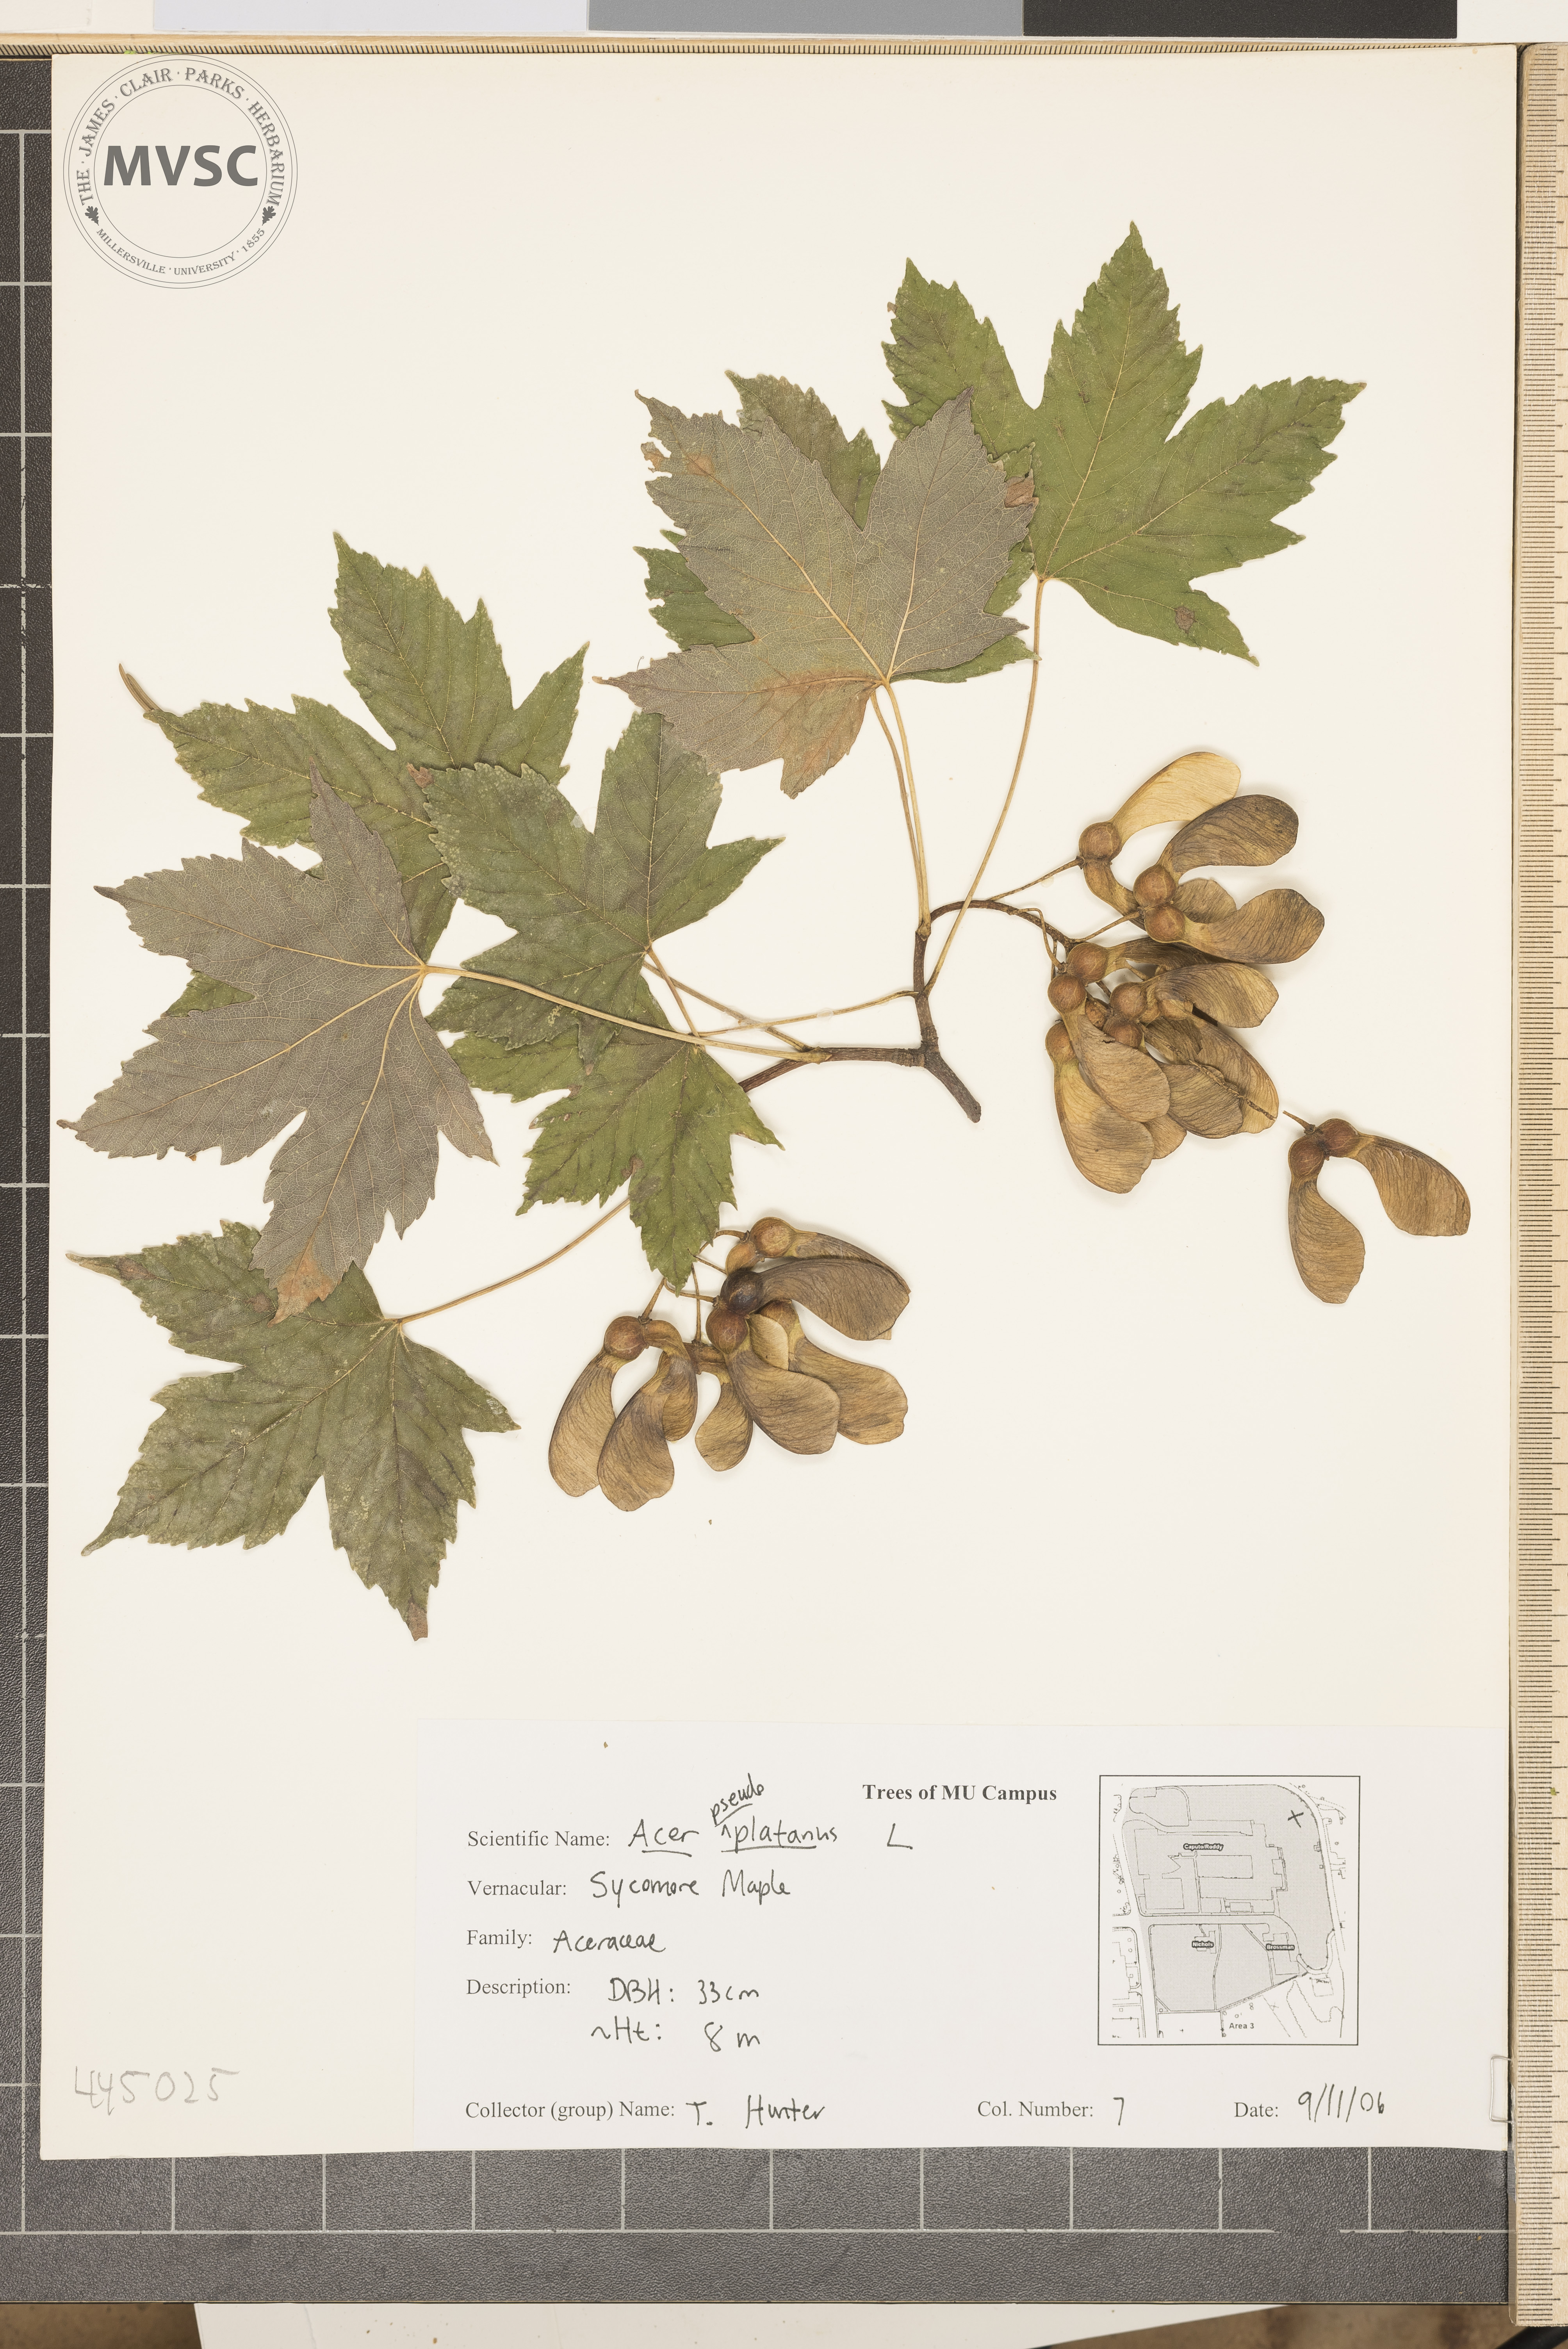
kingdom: Plantae
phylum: Tracheophyta
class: Magnoliopsida
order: Sapindales
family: Sapindaceae
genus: Acer
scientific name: Acer pseudoplatanus
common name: Sycamore
